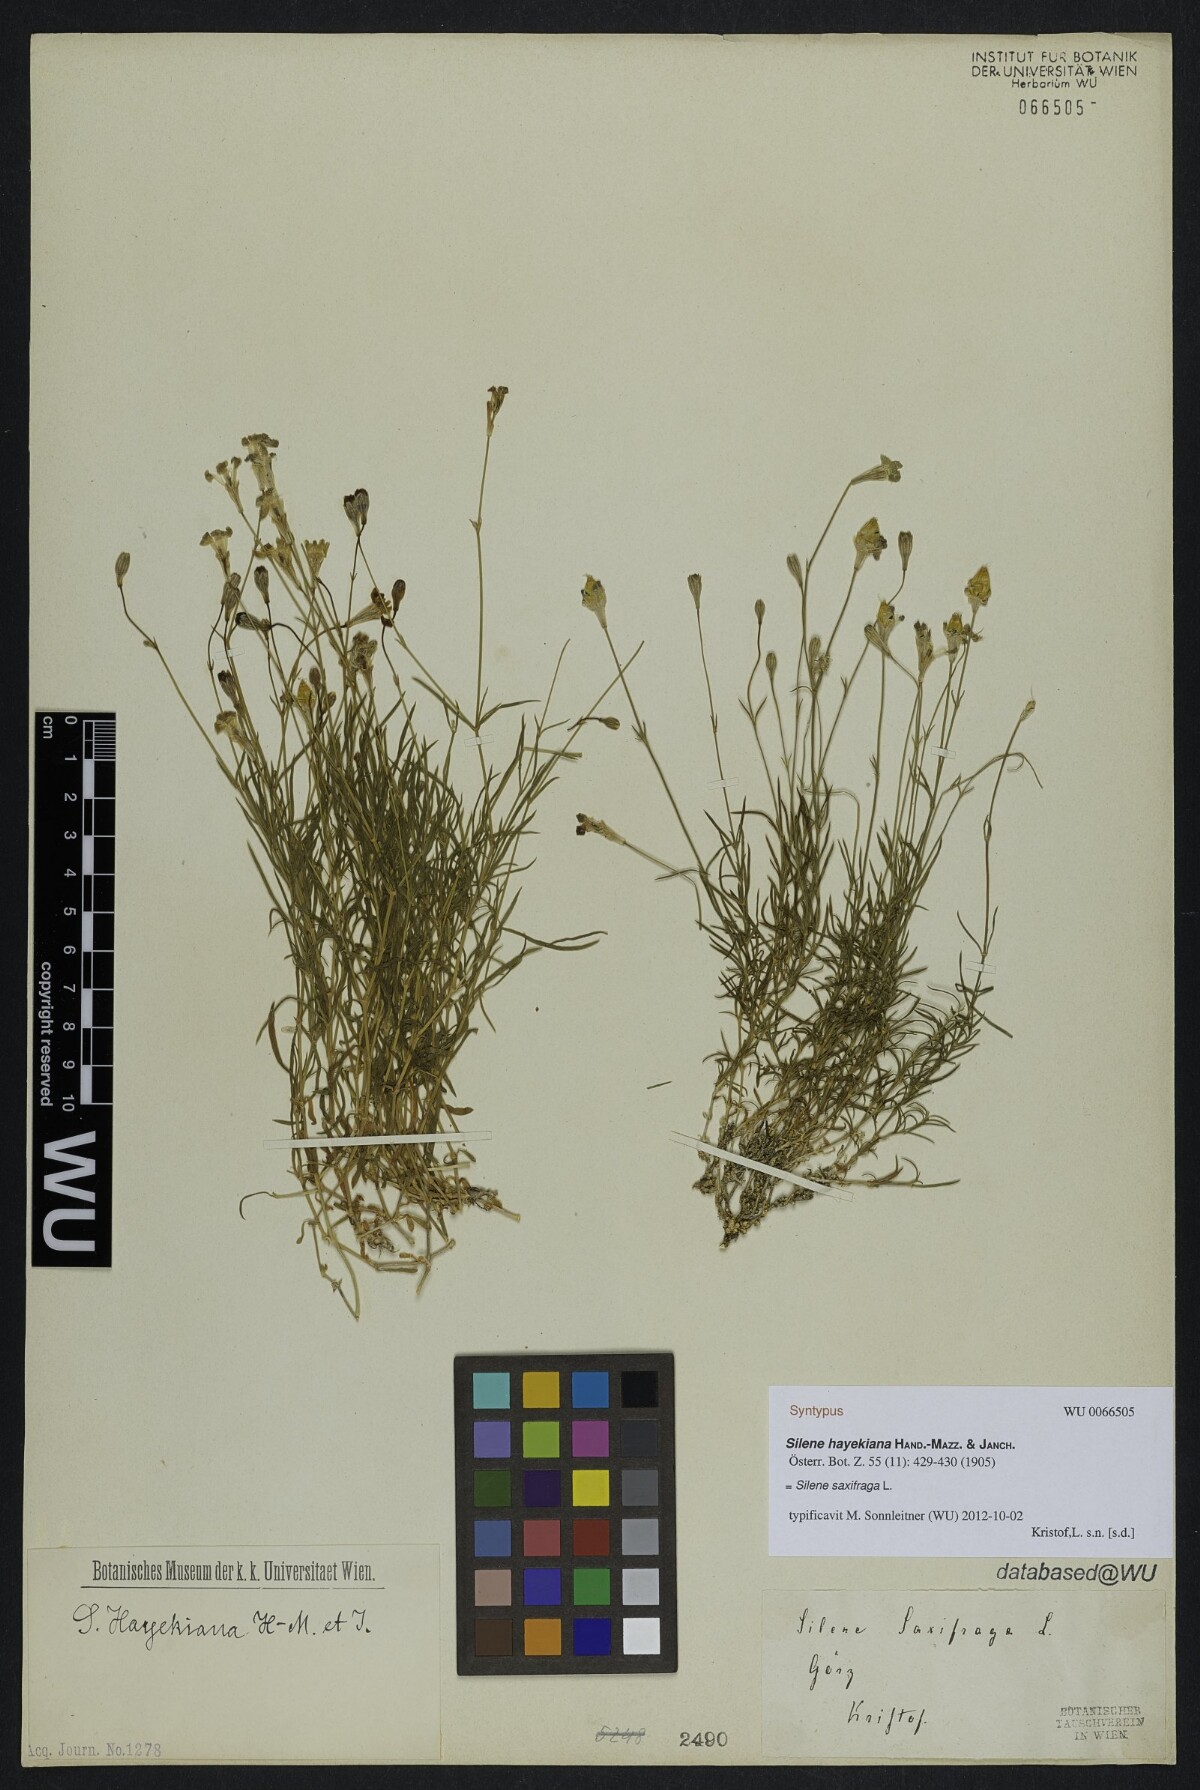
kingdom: Plantae
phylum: Tracheophyta
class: Magnoliopsida
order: Caryophyllales
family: Caryophyllaceae
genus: Silene
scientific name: Silene hayekiana
